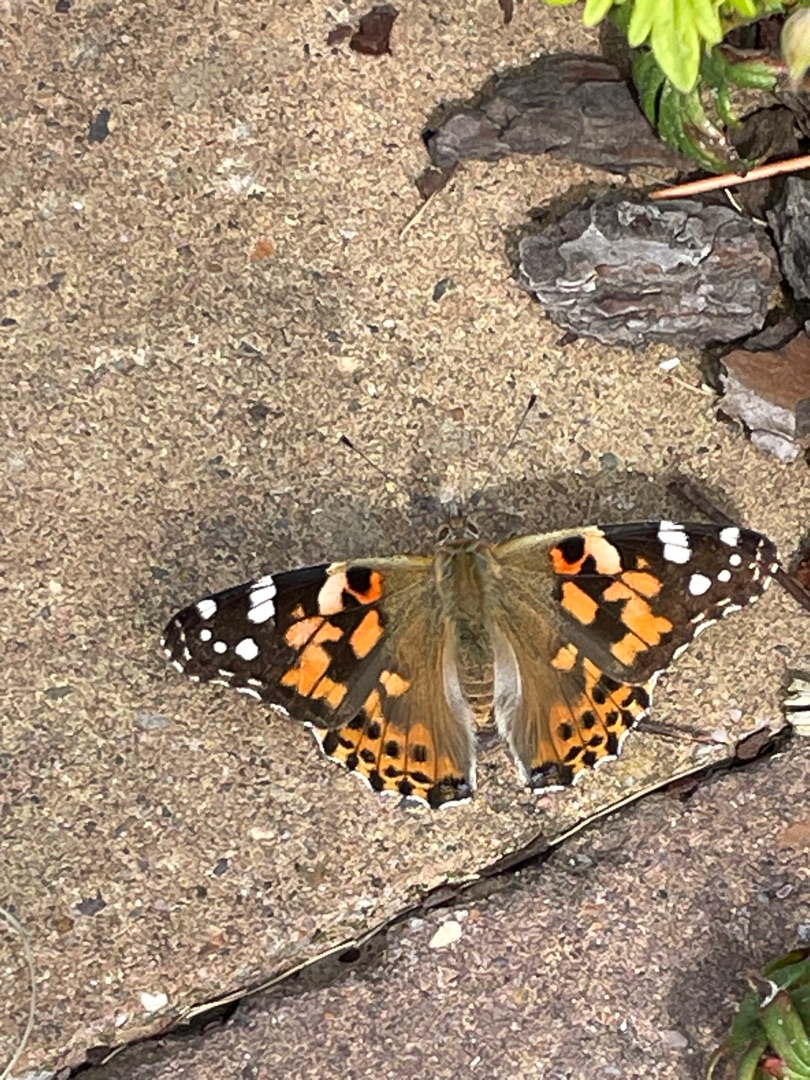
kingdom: Animalia
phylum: Arthropoda
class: Insecta
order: Lepidoptera
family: Nymphalidae
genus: Vanessa
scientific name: Vanessa cardui
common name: Tidselsommerfugl
